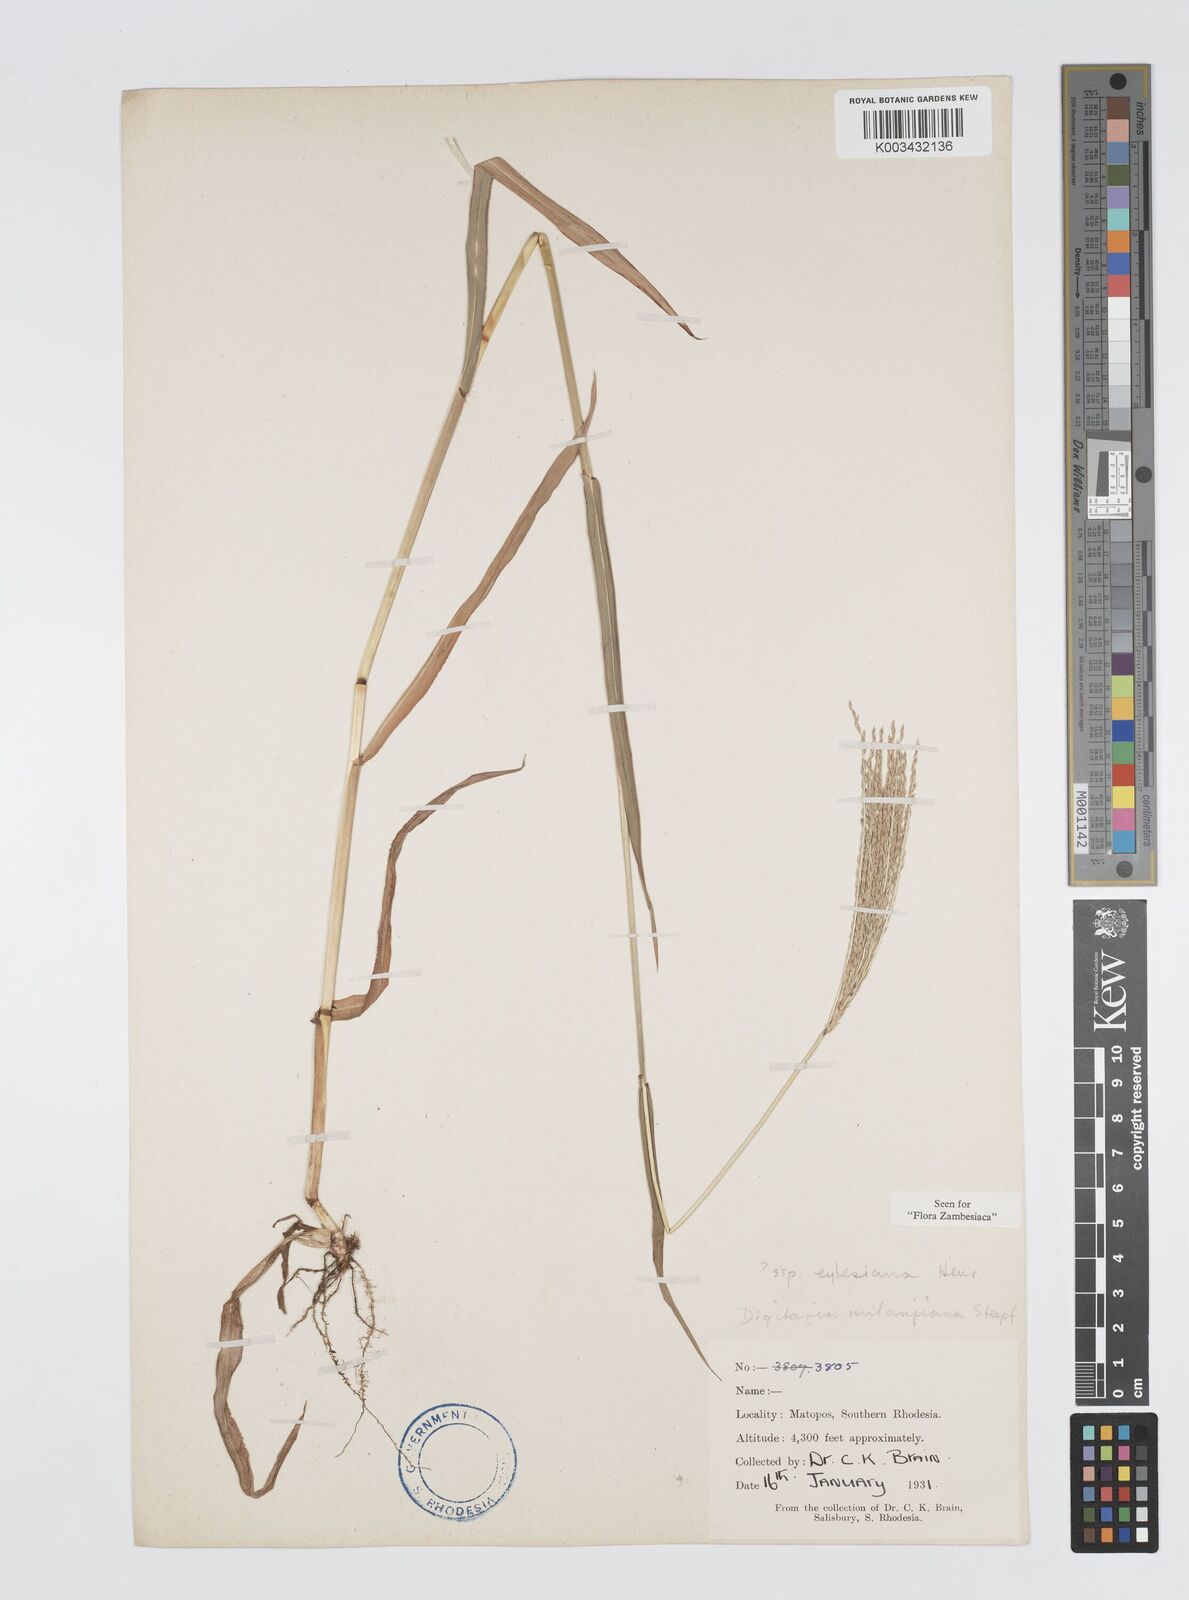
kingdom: Plantae
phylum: Tracheophyta
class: Liliopsida
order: Poales
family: Poaceae
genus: Digitaria
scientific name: Digitaria milanjiana
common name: Madagascar crabgrass
